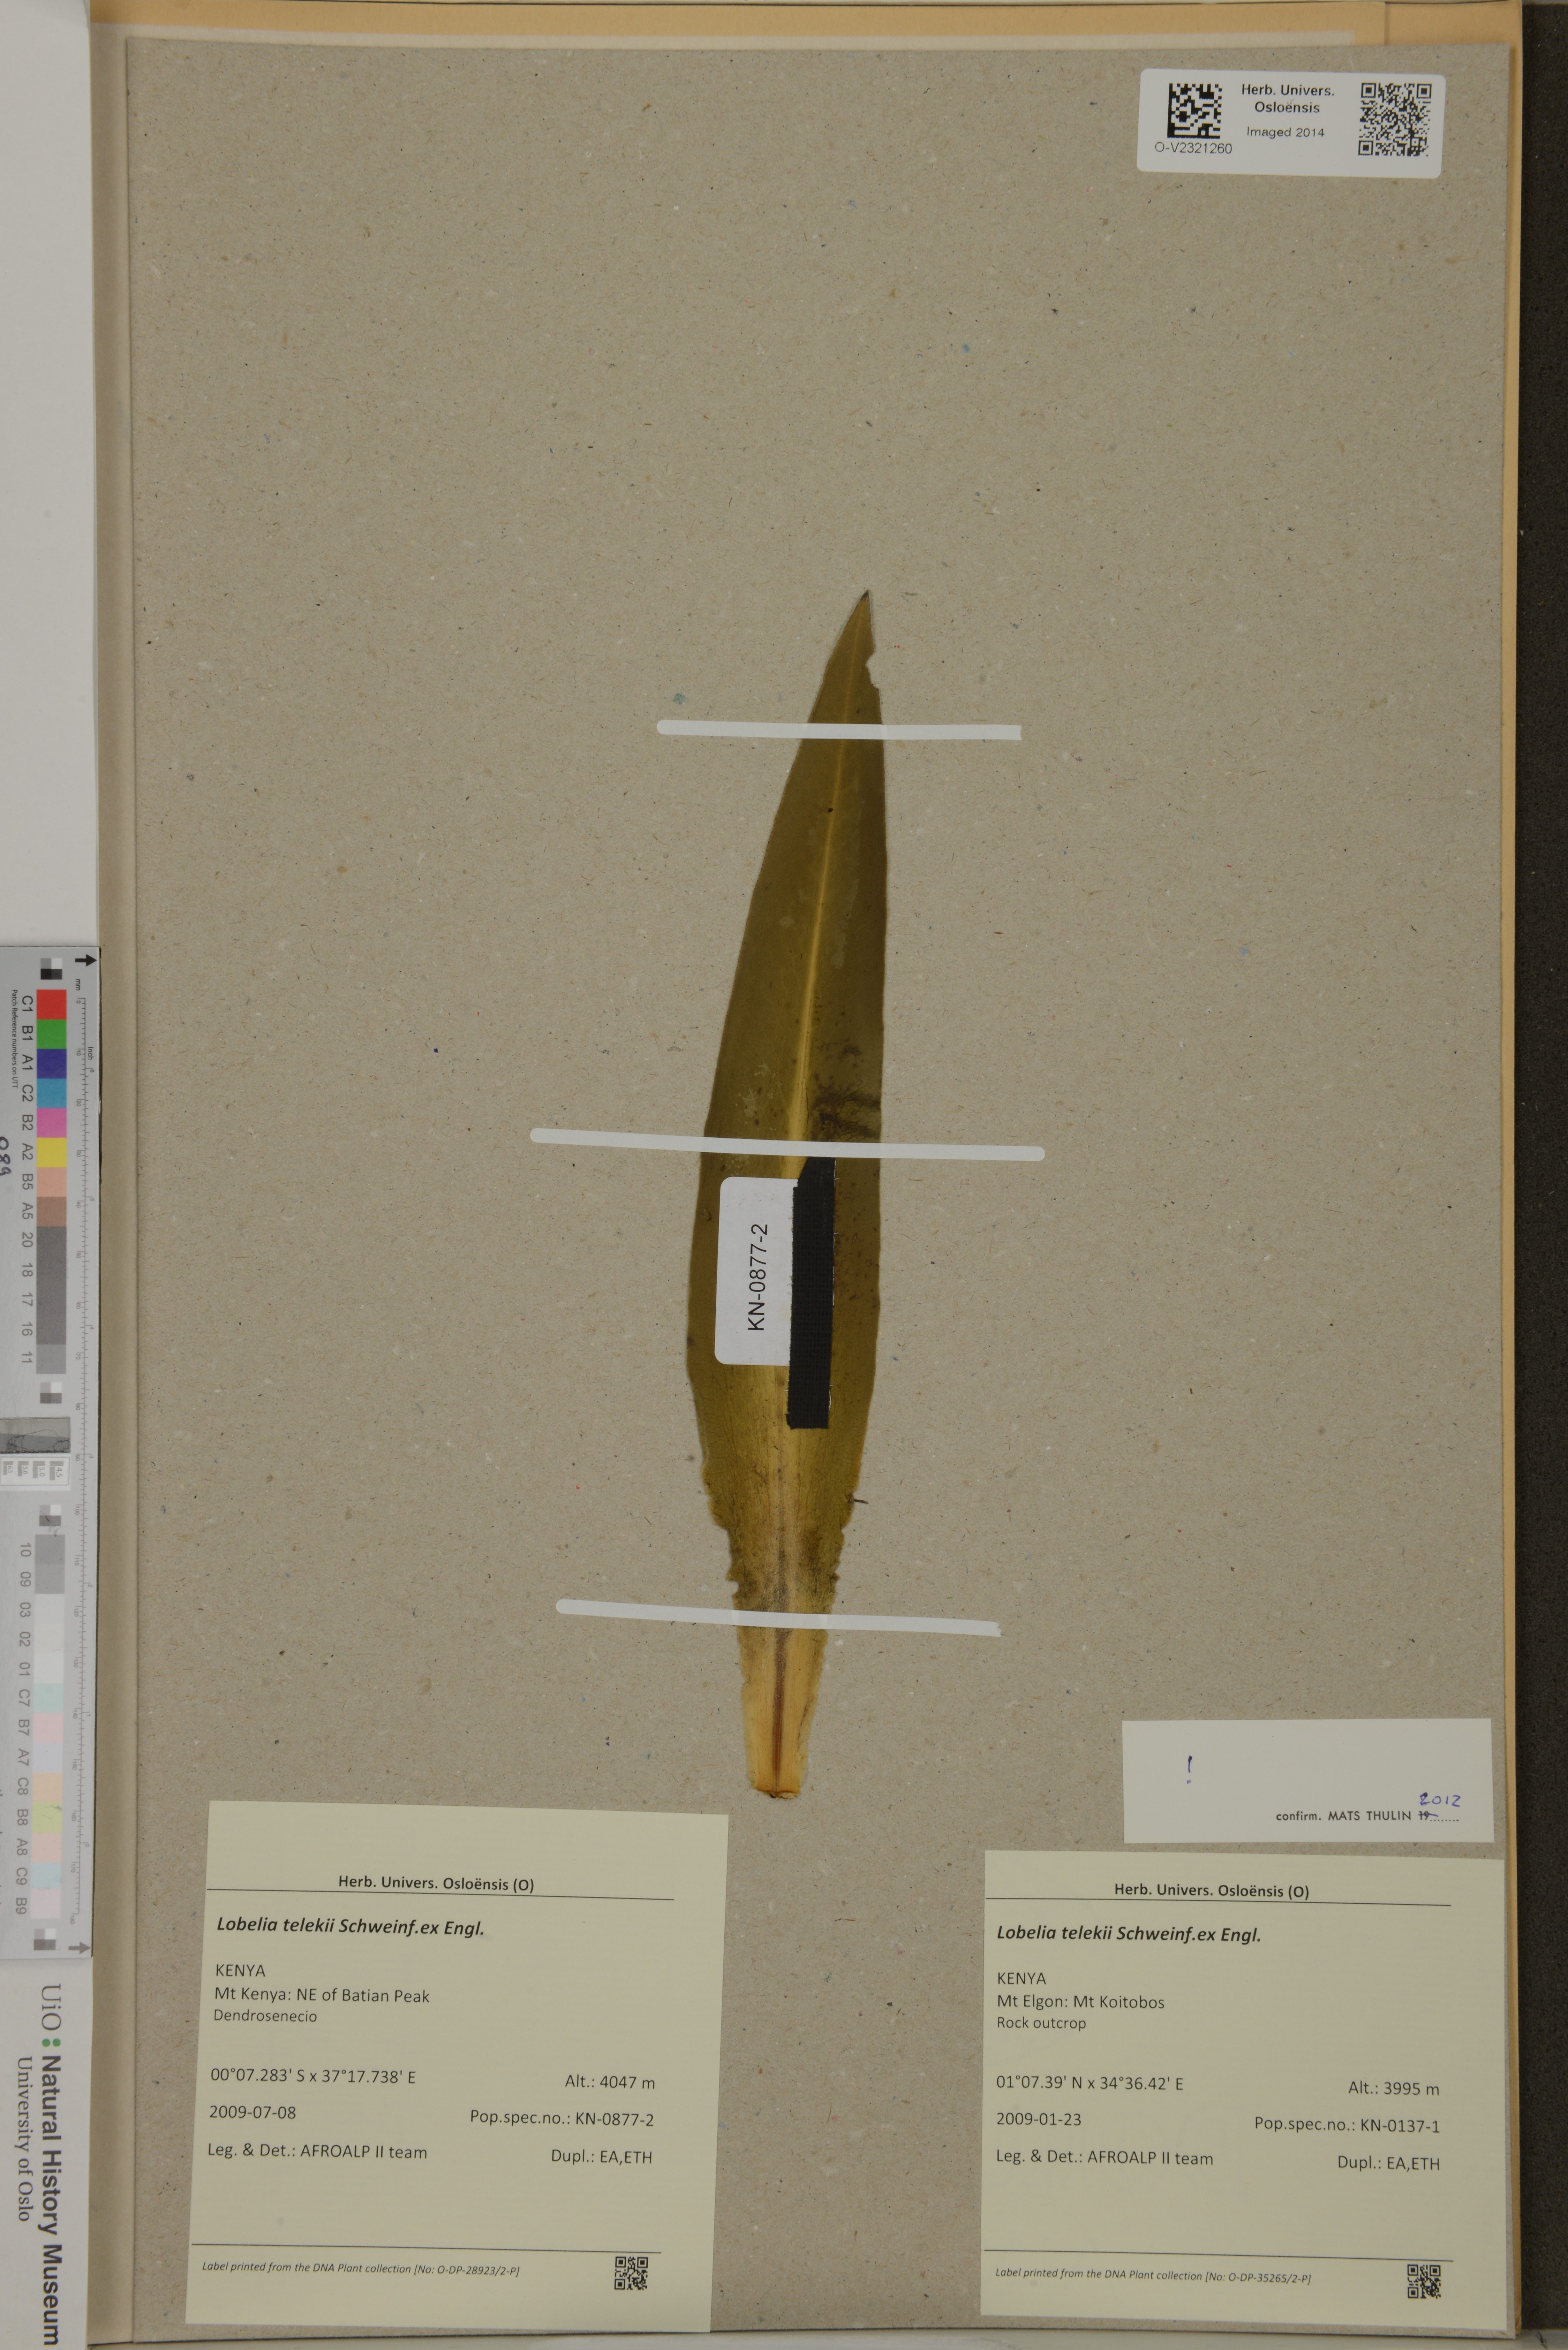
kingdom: Plantae
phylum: Tracheophyta
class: Magnoliopsida
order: Asterales
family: Campanulaceae
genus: Lobelia
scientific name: Lobelia telekii
